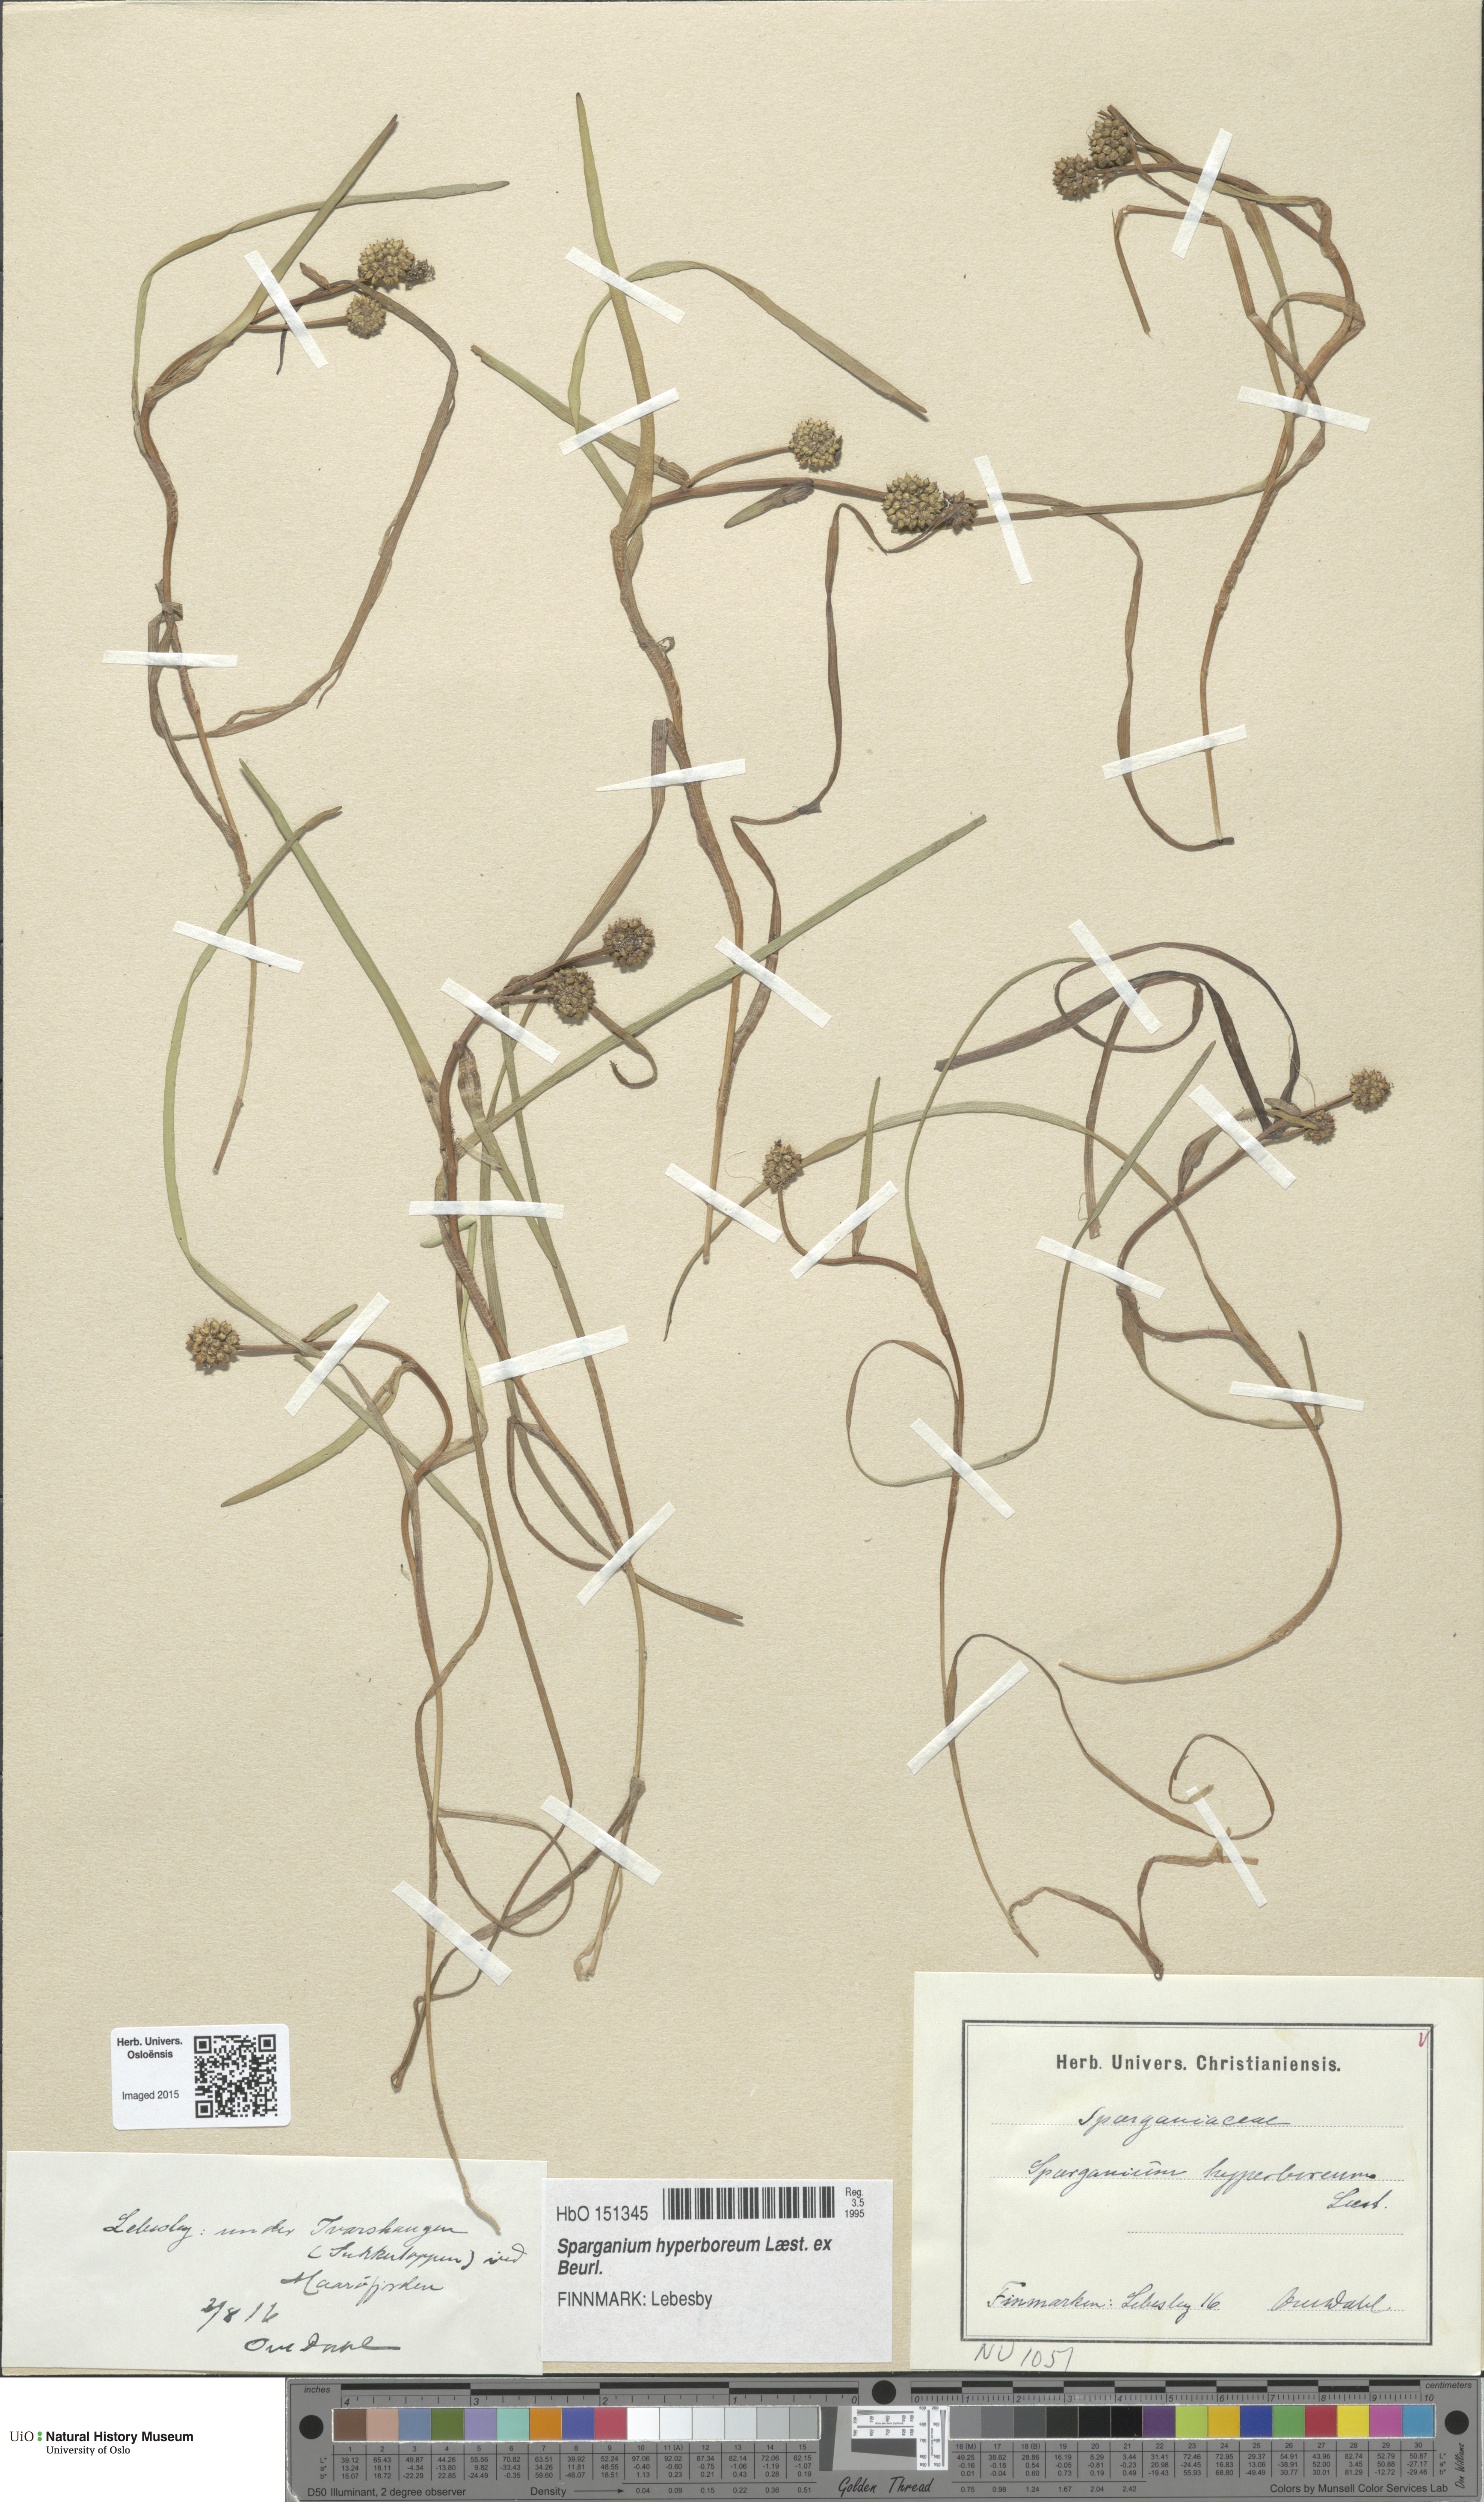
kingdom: Plantae
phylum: Tracheophyta
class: Liliopsida
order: Poales
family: Typhaceae
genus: Sparganium
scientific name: Sparganium hyperboreum
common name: Arctic burreed
